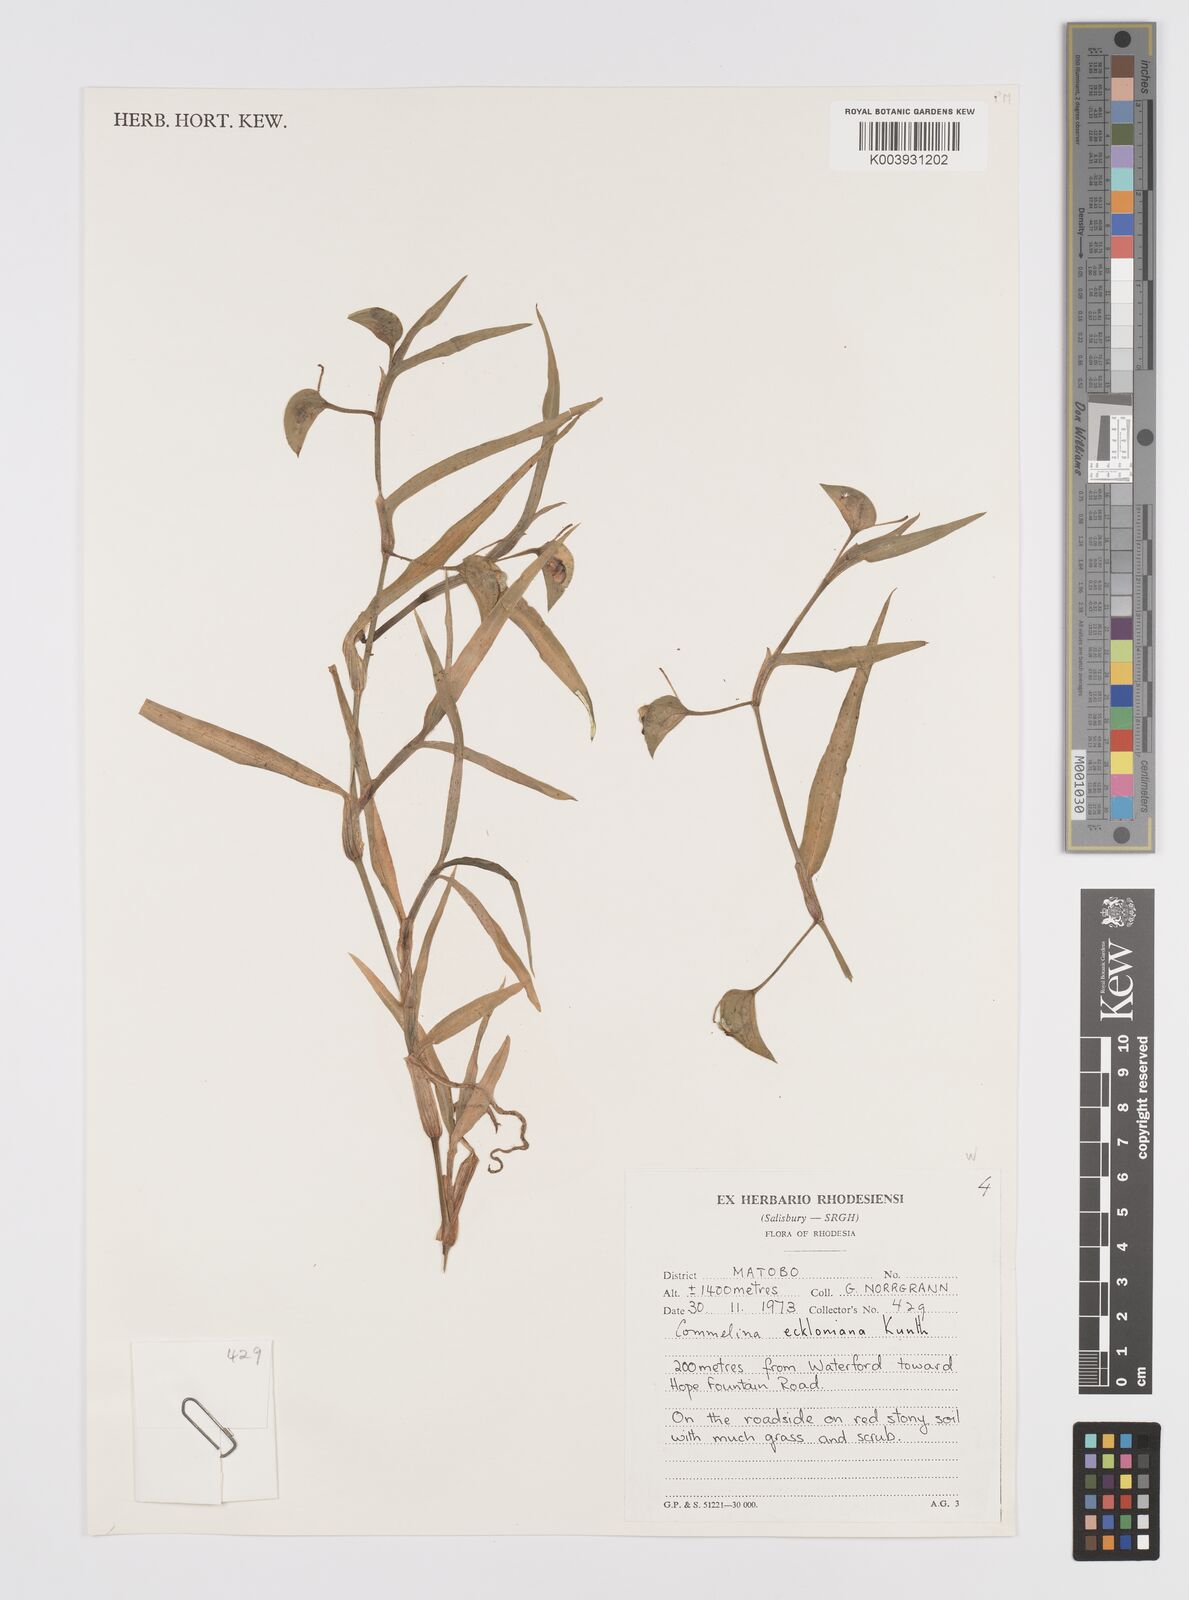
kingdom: Plantae
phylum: Tracheophyta
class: Liliopsida
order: Commelinales
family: Commelinaceae
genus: Commelina
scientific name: Commelina eckloniana
